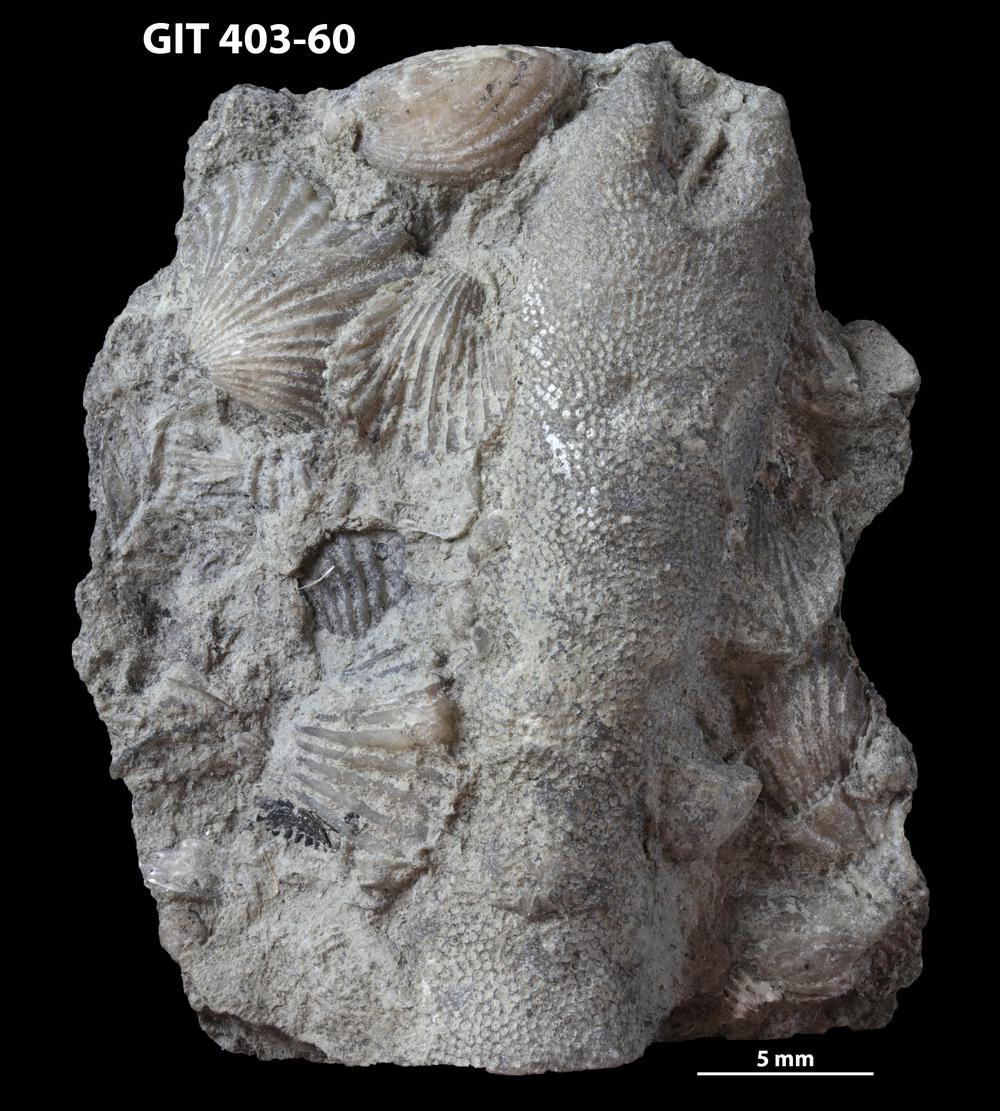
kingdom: Animalia
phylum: Bryozoa
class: Stenolaemata
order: Cystoporida
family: Fistuliporidae
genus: Fistulipora
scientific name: Fistulipora przhidolensis
